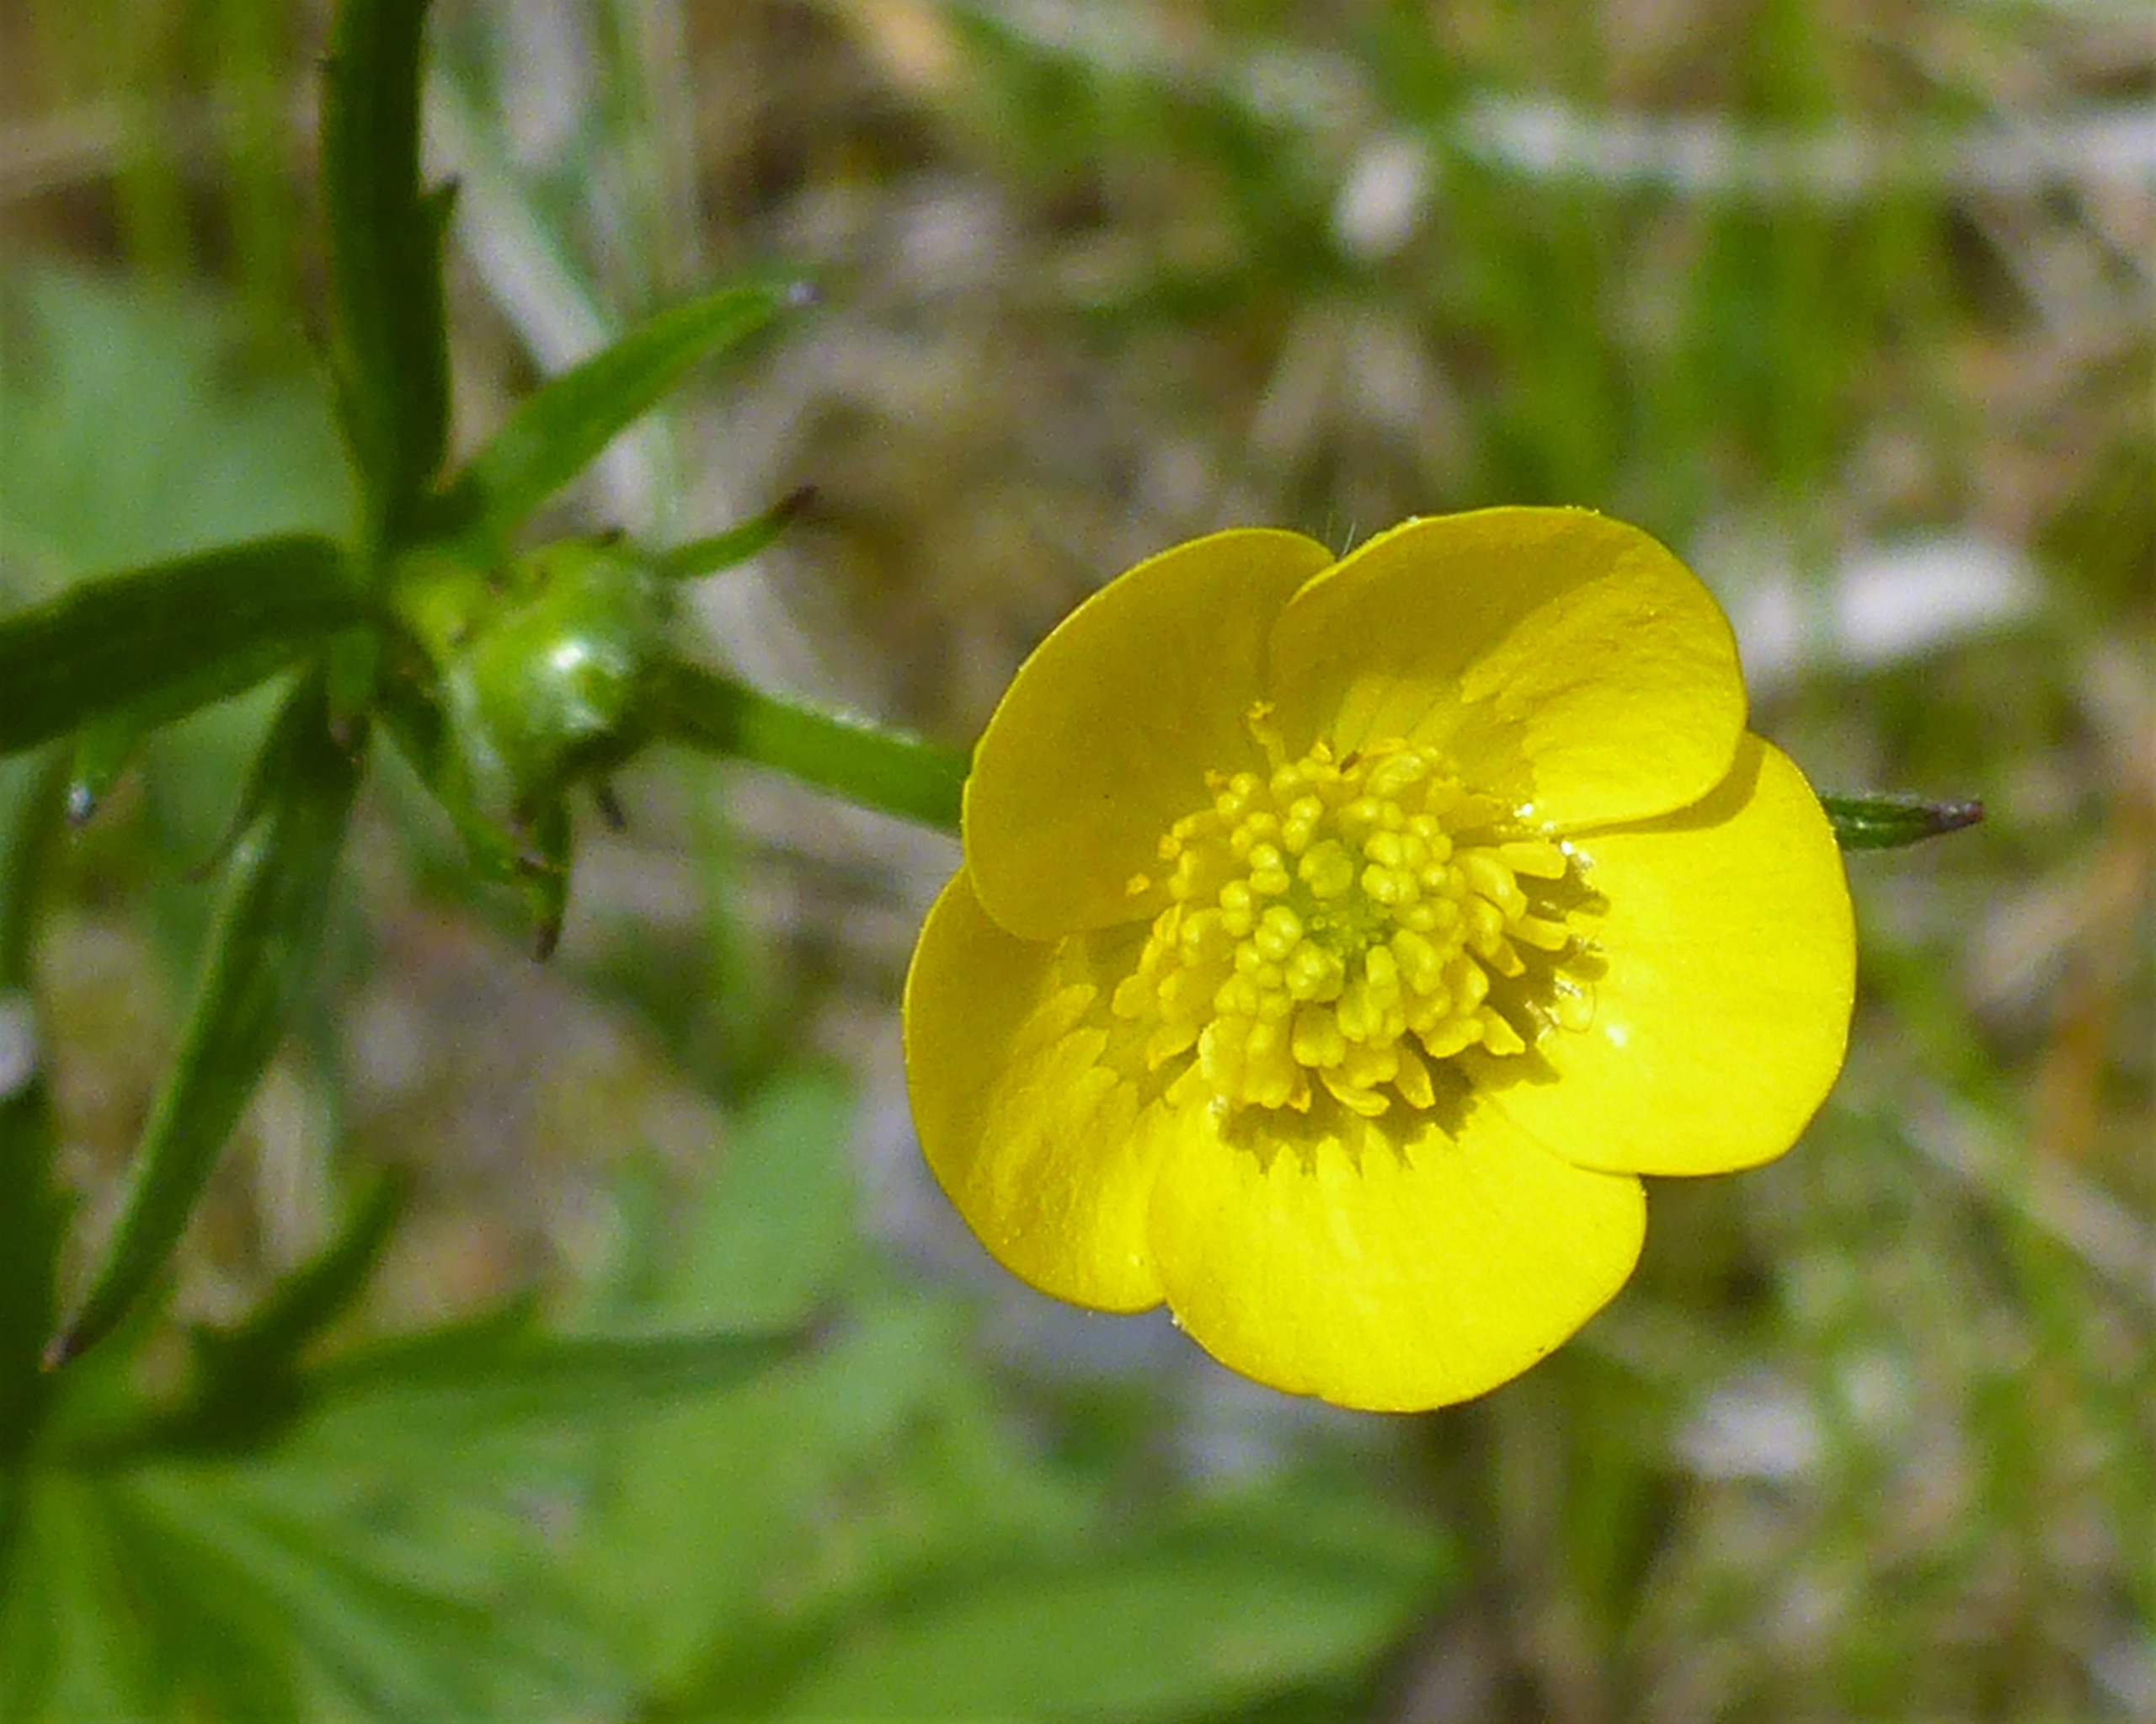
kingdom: Plantae
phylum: Tracheophyta
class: Magnoliopsida
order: Ranunculales
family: Ranunculaceae
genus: Ranunculus
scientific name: Ranunculus acris
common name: Bidende ranunkel
